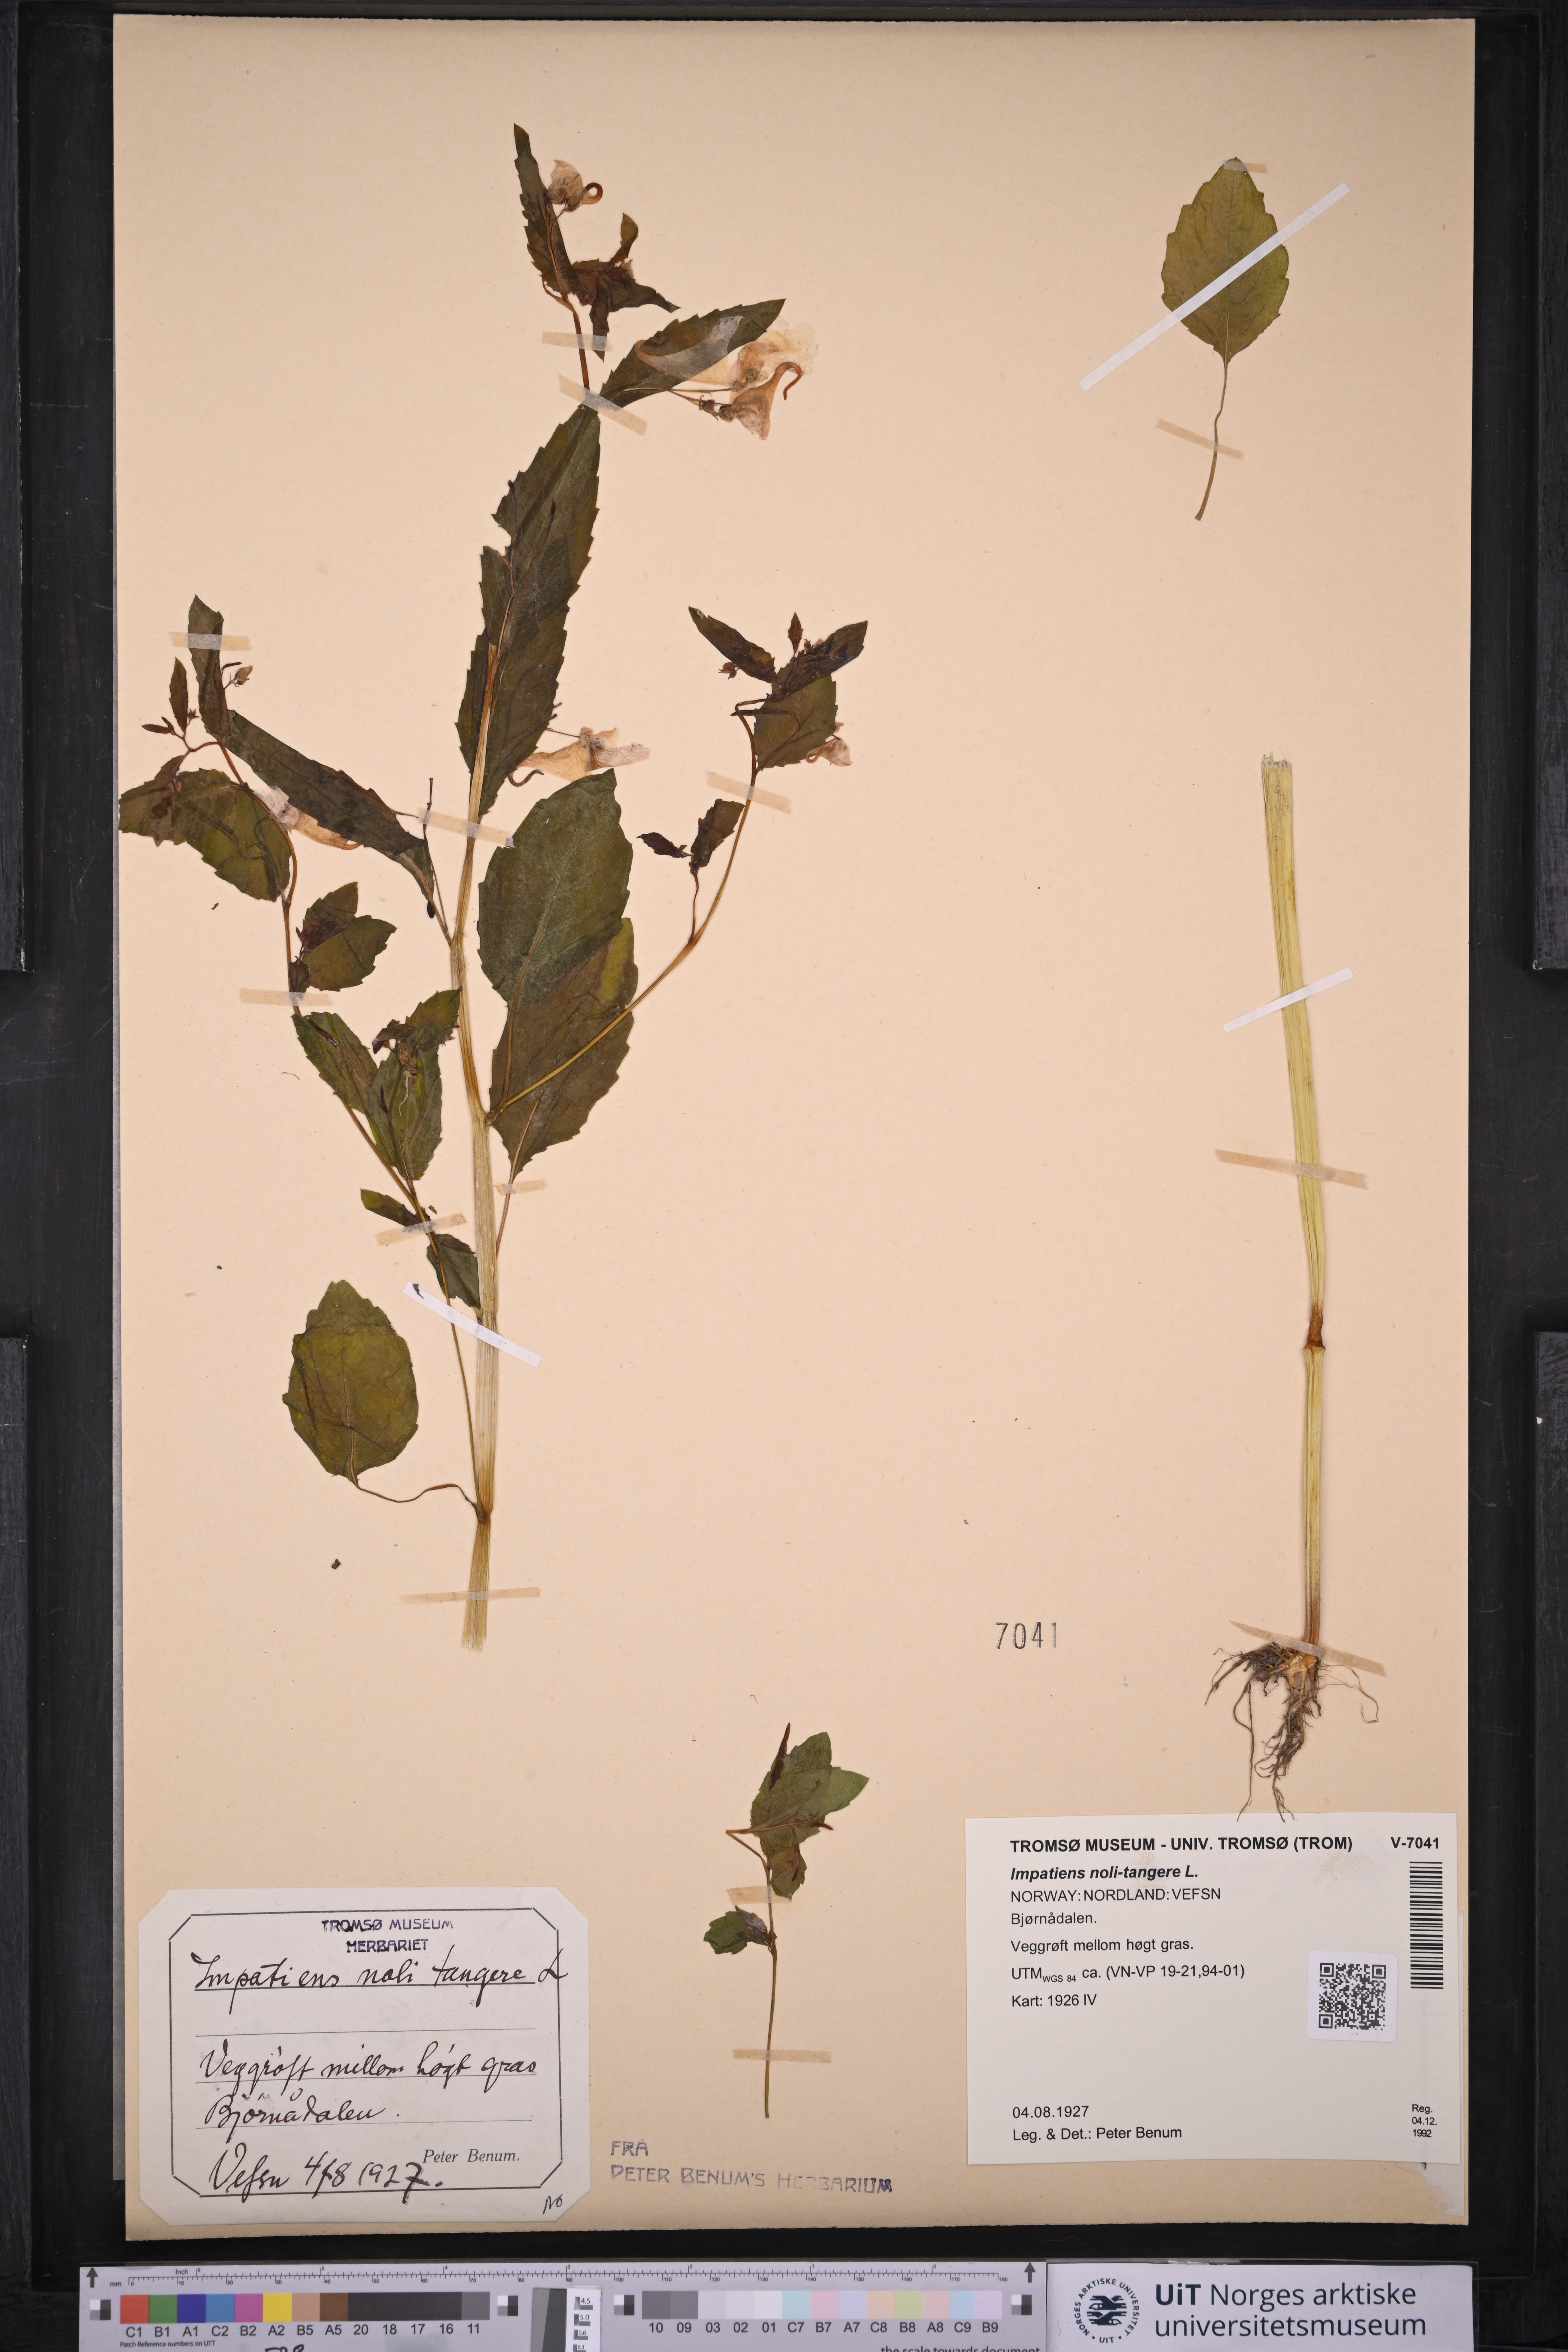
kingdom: Plantae
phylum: Tracheophyta
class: Magnoliopsida
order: Ericales
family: Balsaminaceae
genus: Impatiens
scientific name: Impatiens noli-tangere
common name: Touch-me-not balsam
